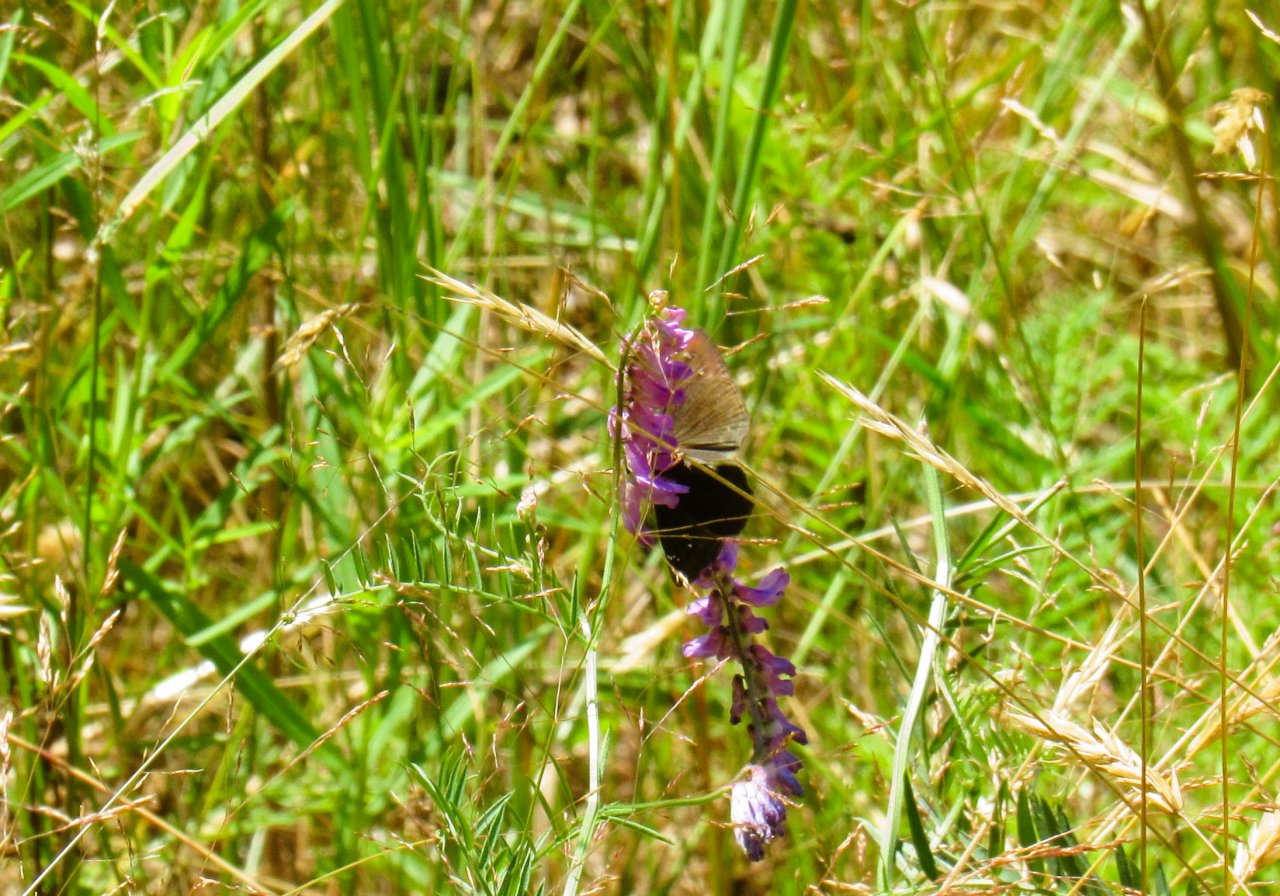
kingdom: Animalia
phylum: Arthropoda
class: Insecta
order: Lepidoptera
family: Hesperiidae
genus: Gesta
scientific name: Gesta
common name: Horace's Duskywing
